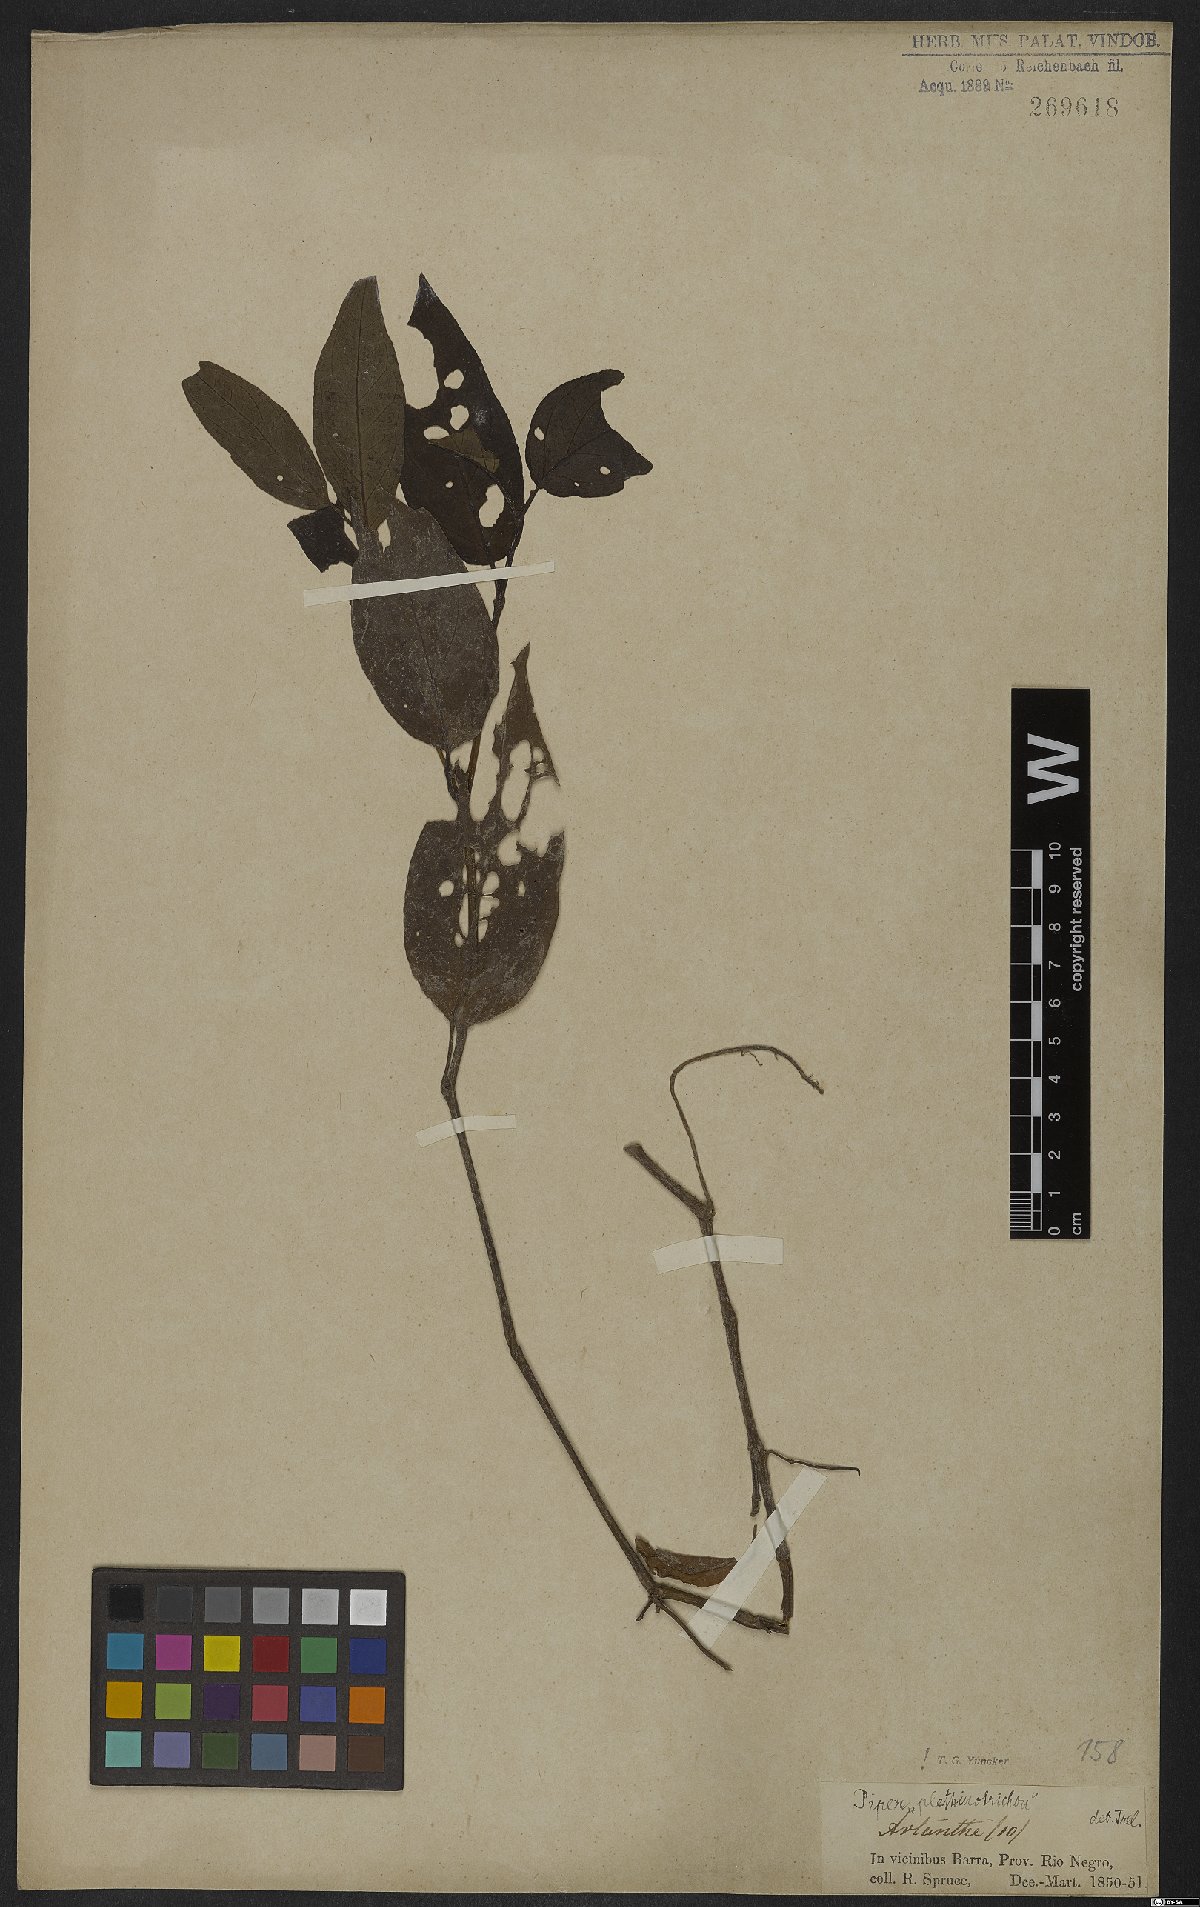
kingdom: Plantae
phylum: Tracheophyta
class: Magnoliopsida
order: Piperales
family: Piperaceae
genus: Piper
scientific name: Piper phytolaccifolium
